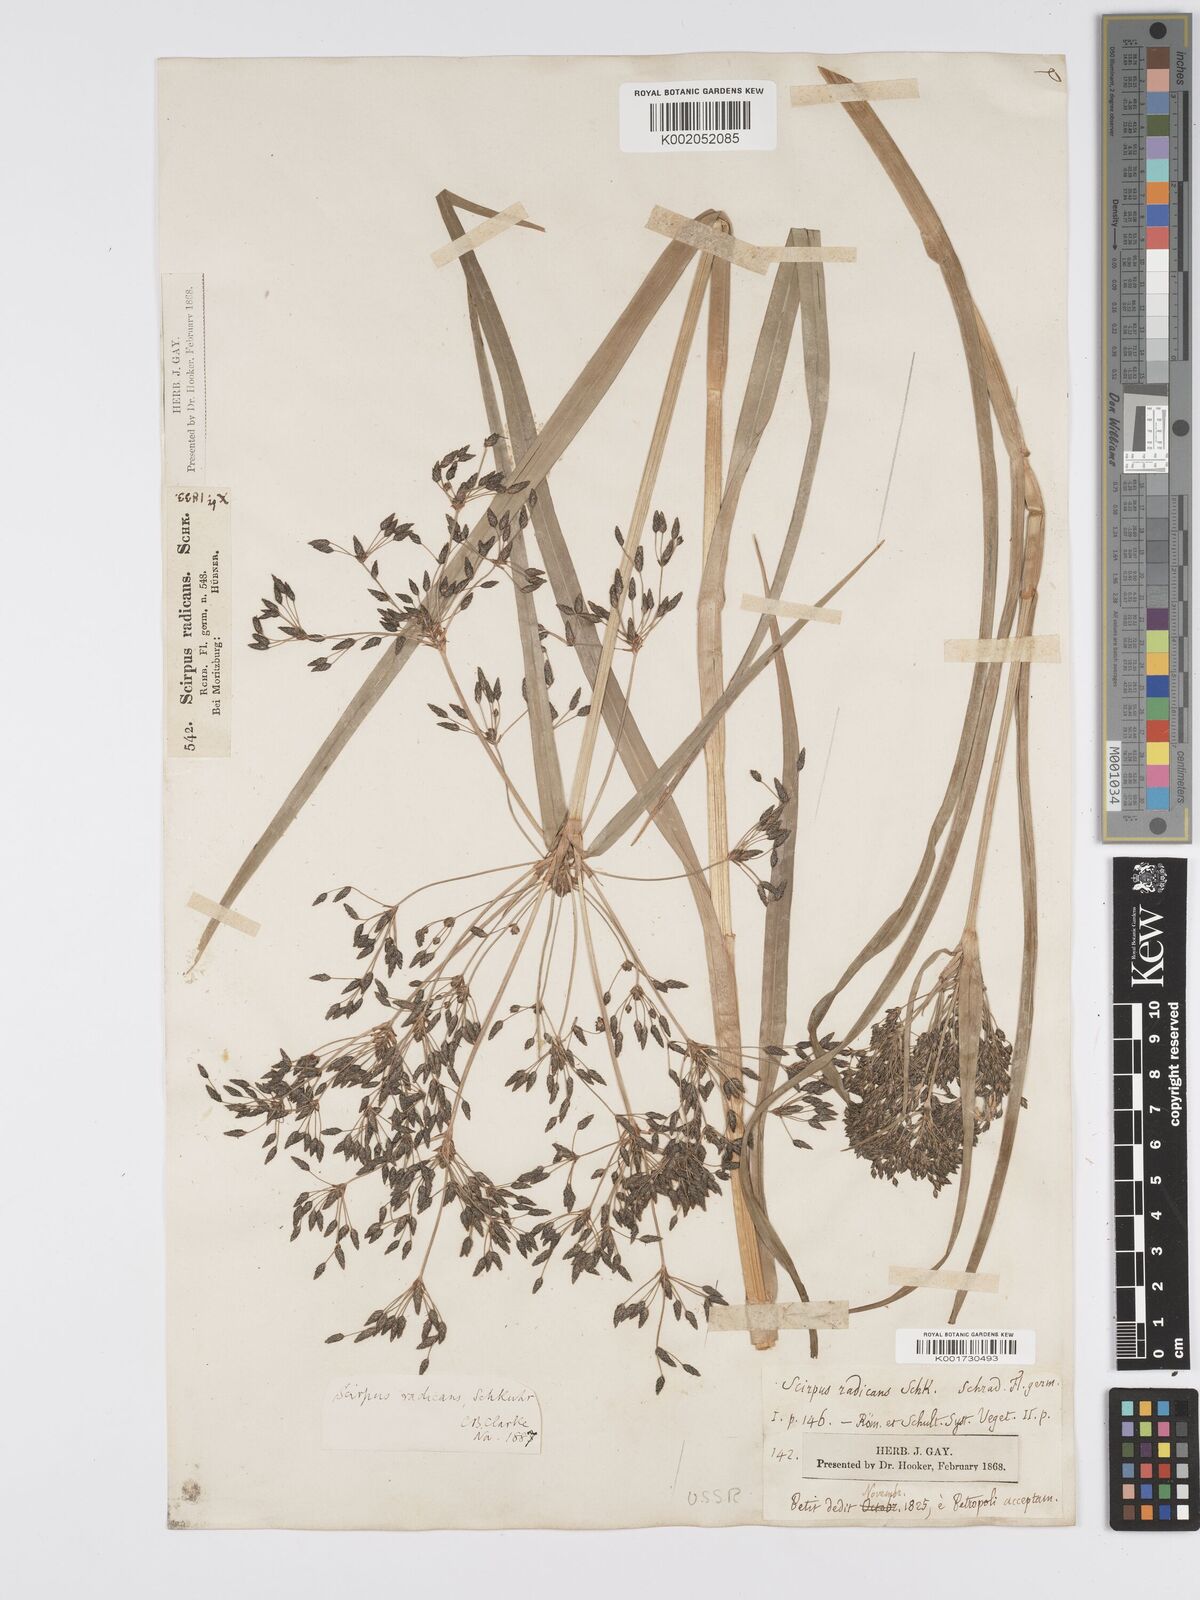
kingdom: Plantae
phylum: Tracheophyta
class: Liliopsida
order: Poales
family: Cyperaceae
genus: Scirpus
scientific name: Scirpus radicans
